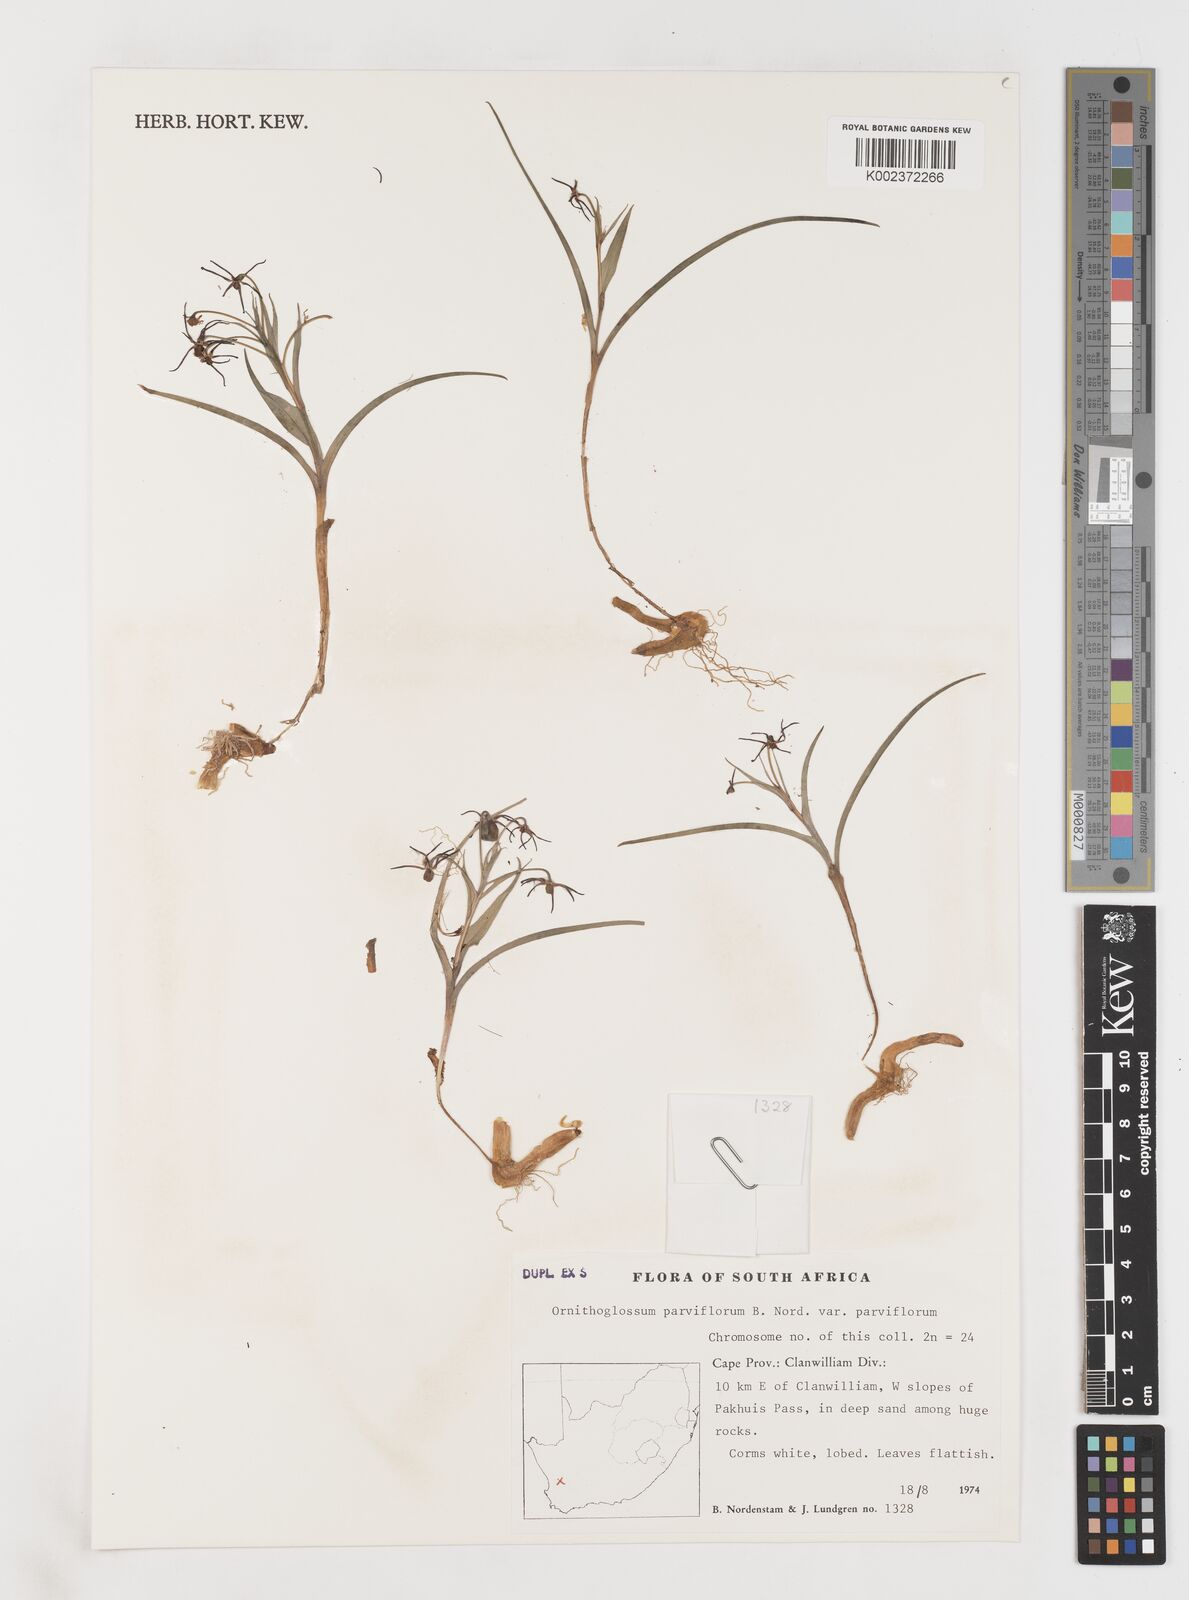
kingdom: Plantae
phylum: Tracheophyta
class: Liliopsida
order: Liliales
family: Colchicaceae
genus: Ornithoglossum
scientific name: Ornithoglossum parviflorum
